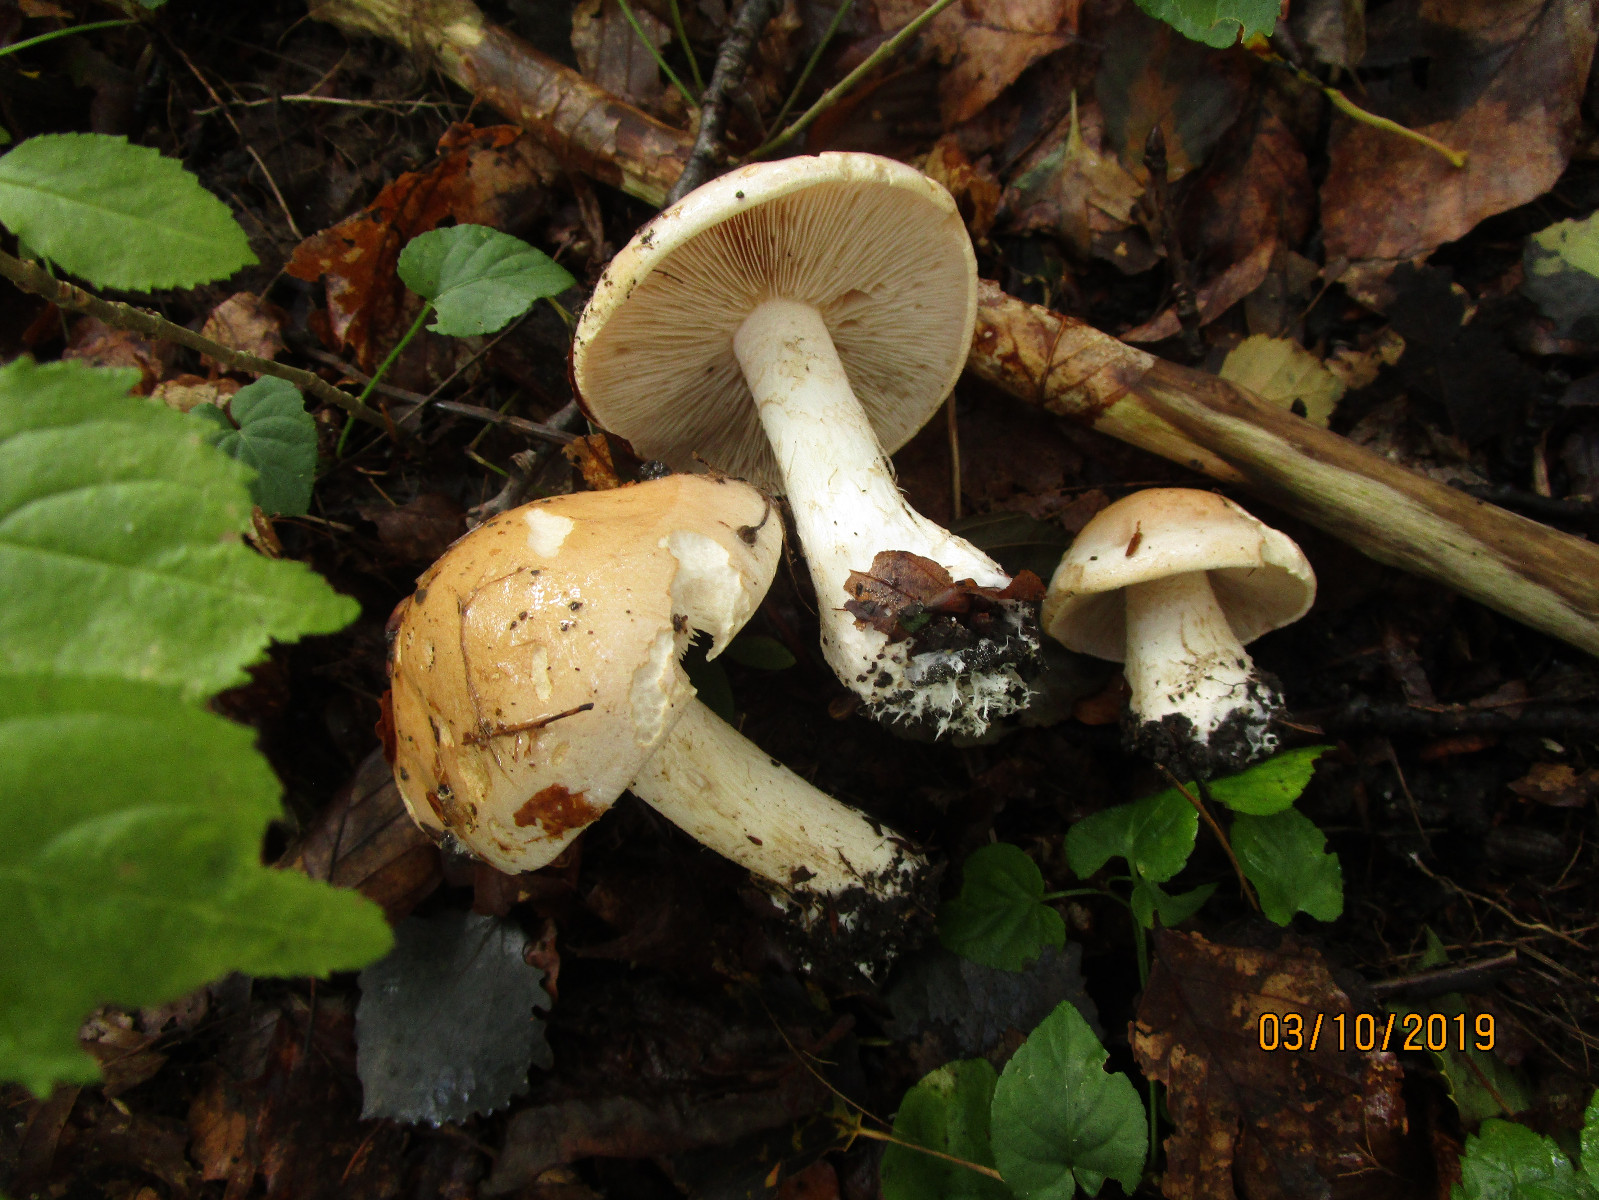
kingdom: Fungi
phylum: Basidiomycota
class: Agaricomycetes
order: Agaricales
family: Hymenogastraceae
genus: Hebeloma
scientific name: Hebeloma laterinum
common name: kakao-tåreblad
